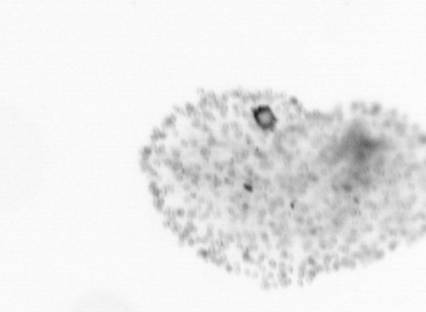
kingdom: Chromista
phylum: Ochrophyta
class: Bacillariophyceae
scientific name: Bacillariophyceae
